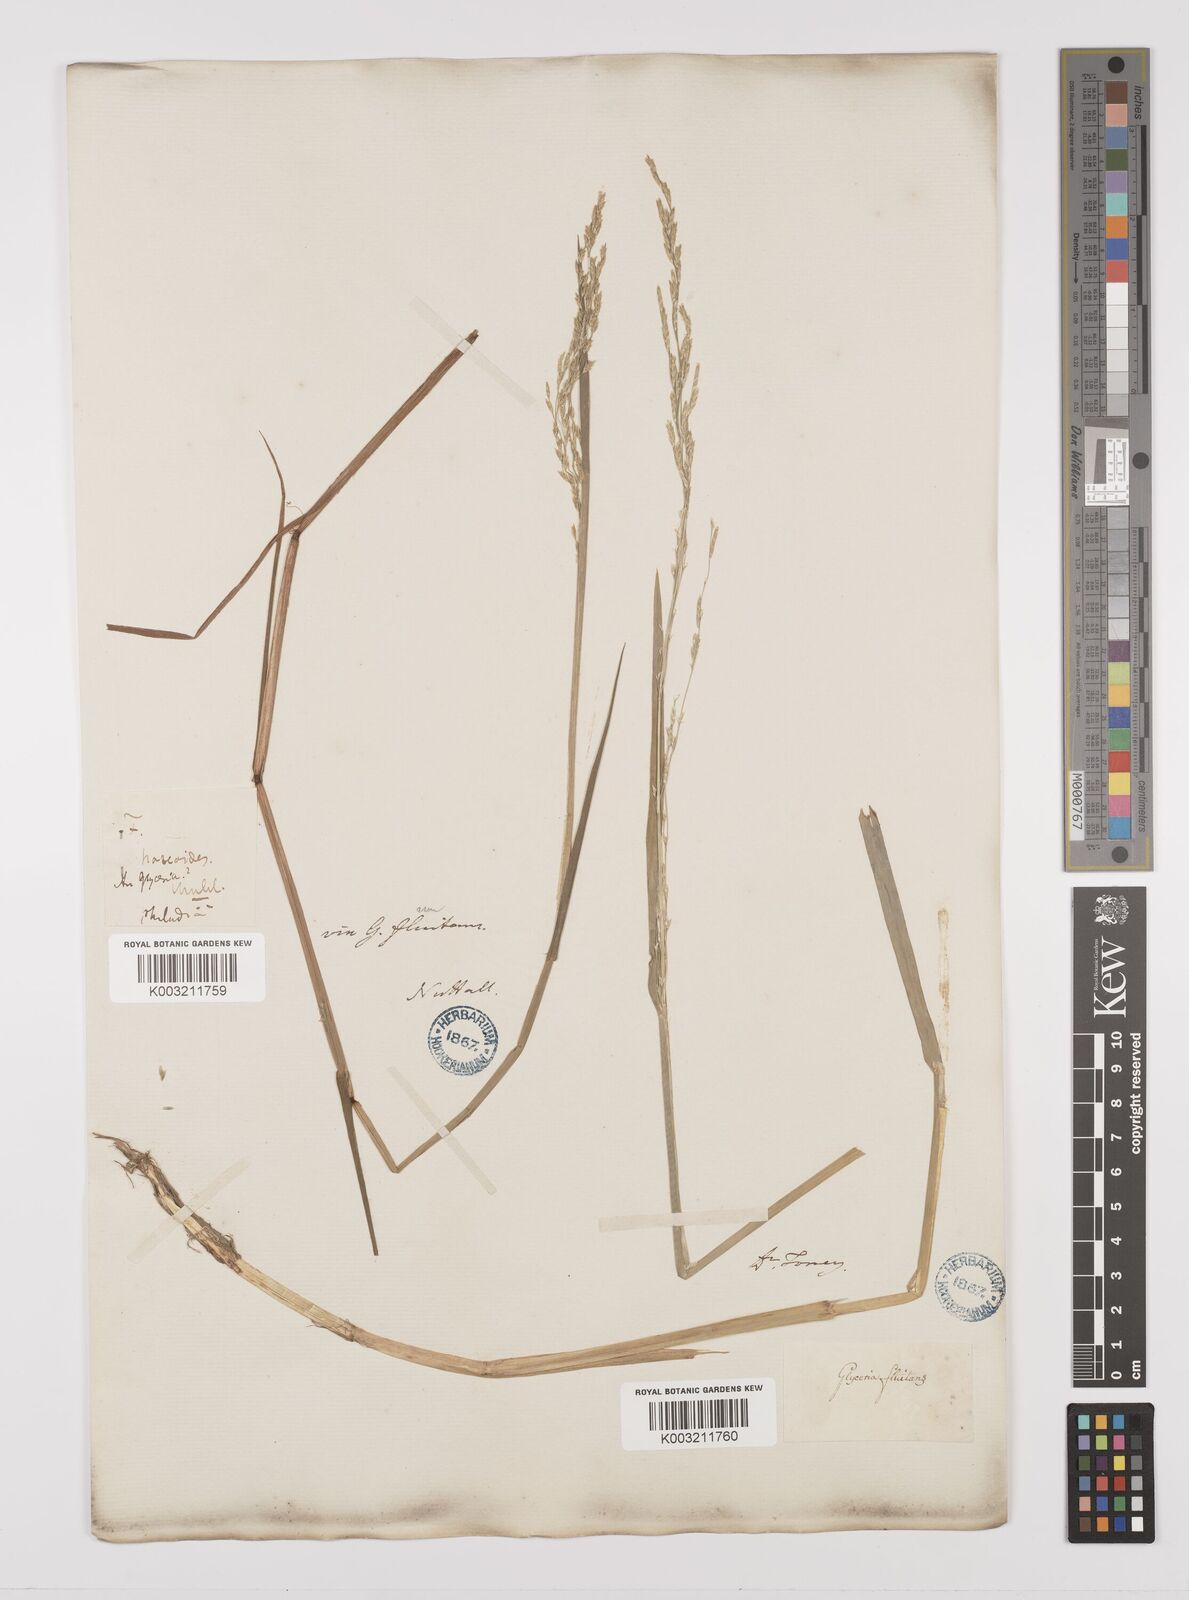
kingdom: Plantae
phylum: Tracheophyta
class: Liliopsida
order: Poales
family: Poaceae
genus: Glyceria
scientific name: Glyceria borealis
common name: Boreal glyceria
